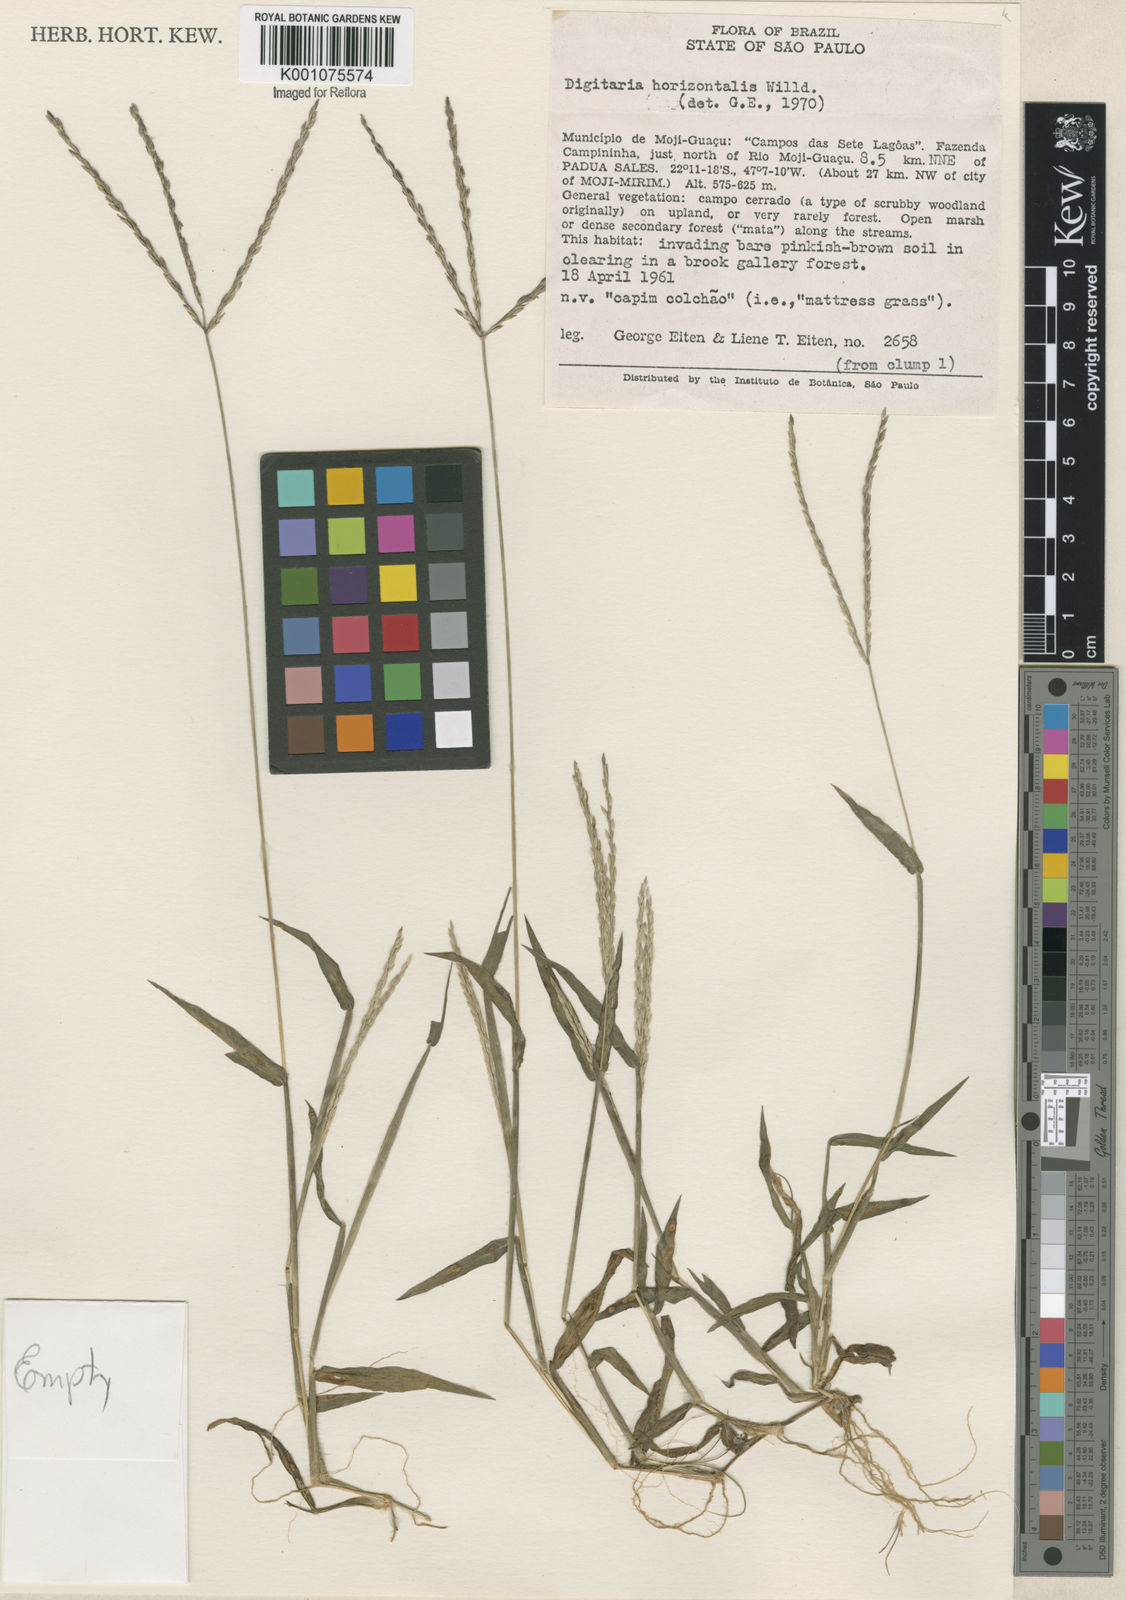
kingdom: Plantae
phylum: Tracheophyta
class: Liliopsida
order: Poales
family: Poaceae
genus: Digitaria
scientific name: Digitaria ciliaris
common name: Tropical finger-grass
